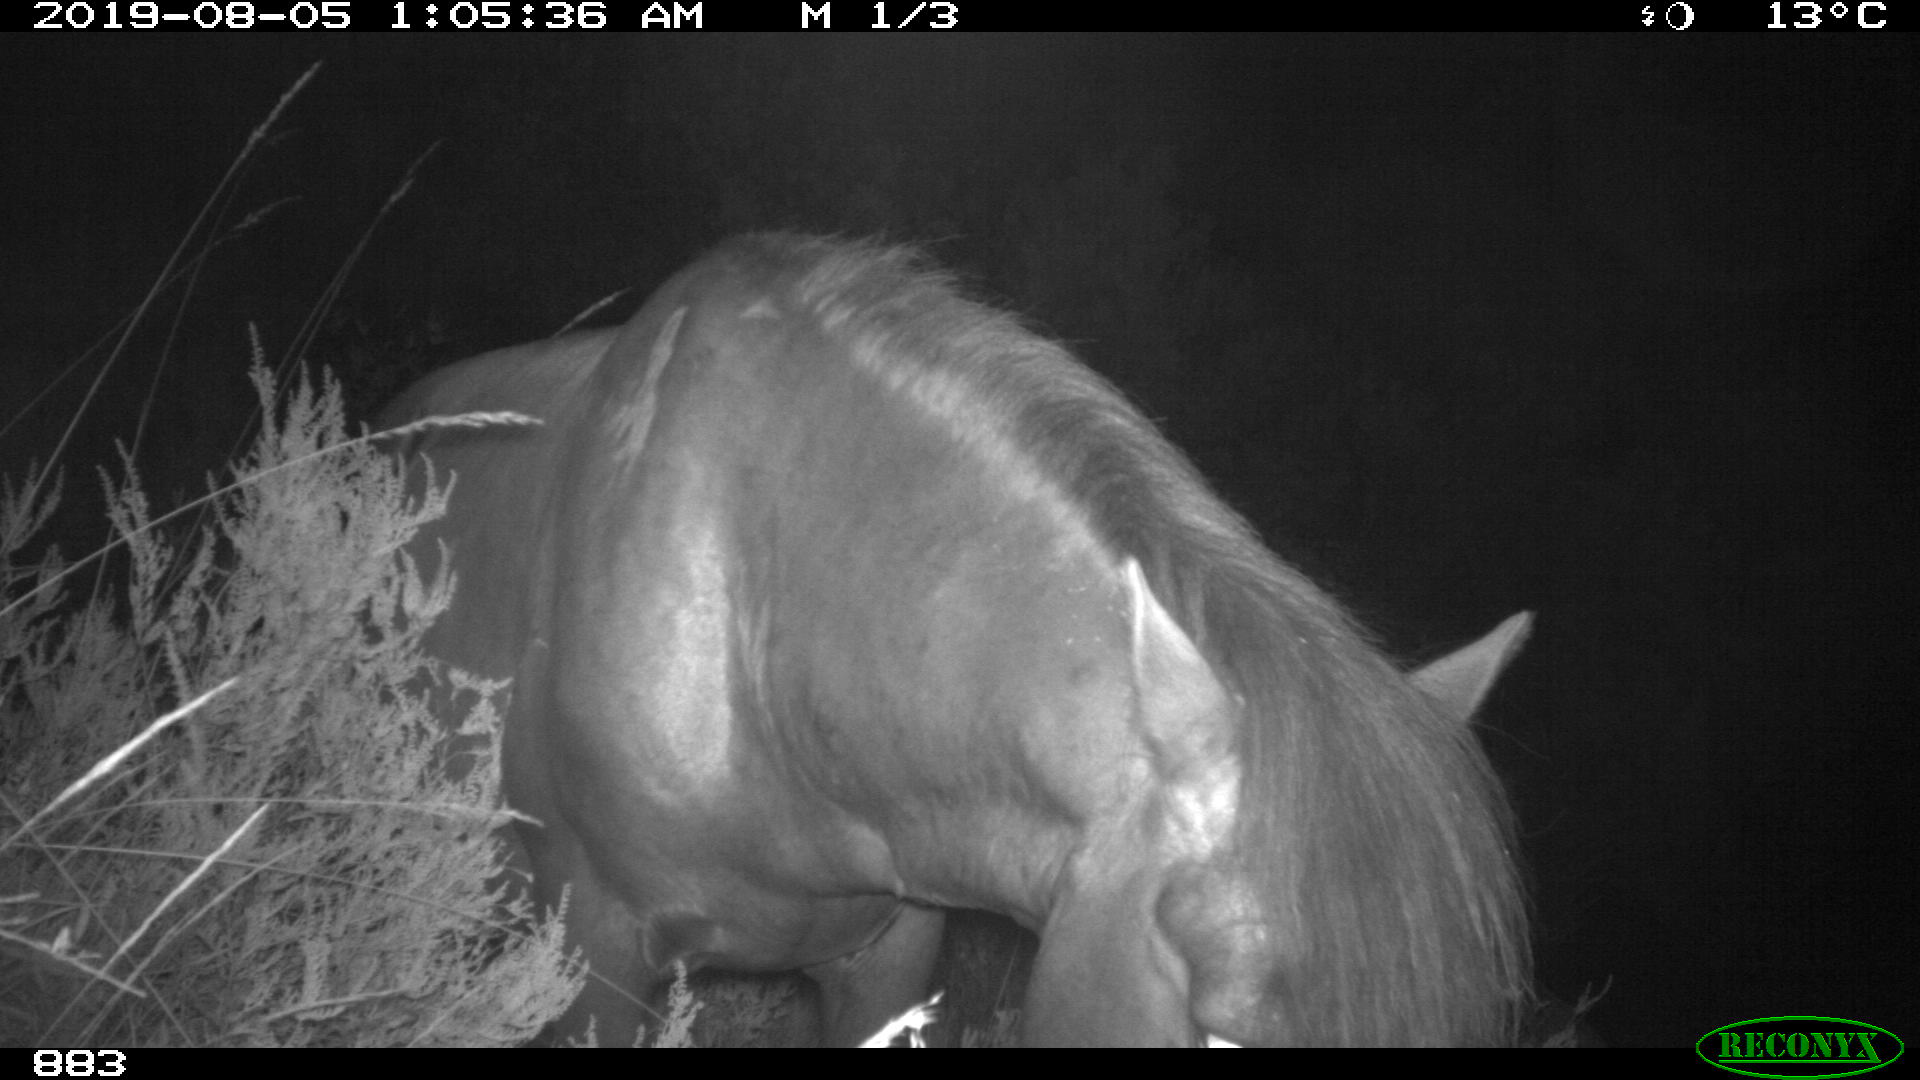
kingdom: Animalia
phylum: Chordata
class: Mammalia
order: Perissodactyla
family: Equidae
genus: Equus
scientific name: Equus caballus
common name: Horse
